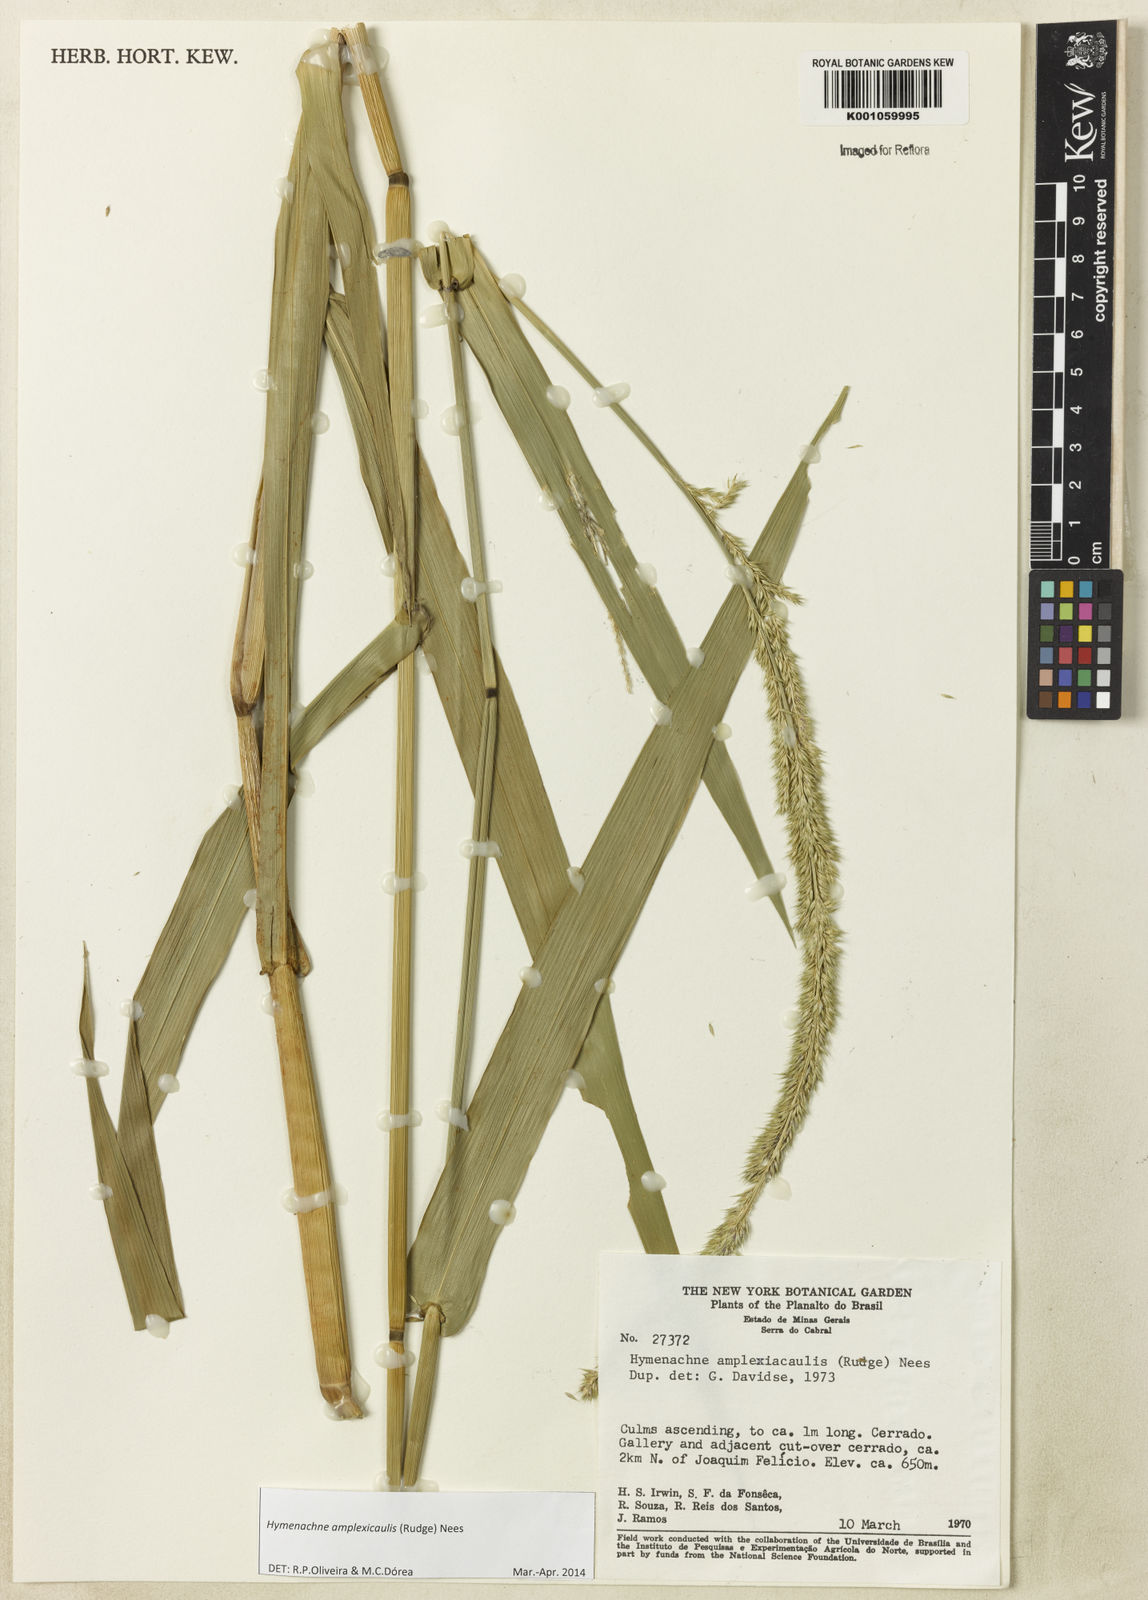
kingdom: Plantae
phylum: Tracheophyta
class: Liliopsida
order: Poales
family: Poaceae
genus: Hymenachne
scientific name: Hymenachne amplexicaulis
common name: Olive hymenachne
